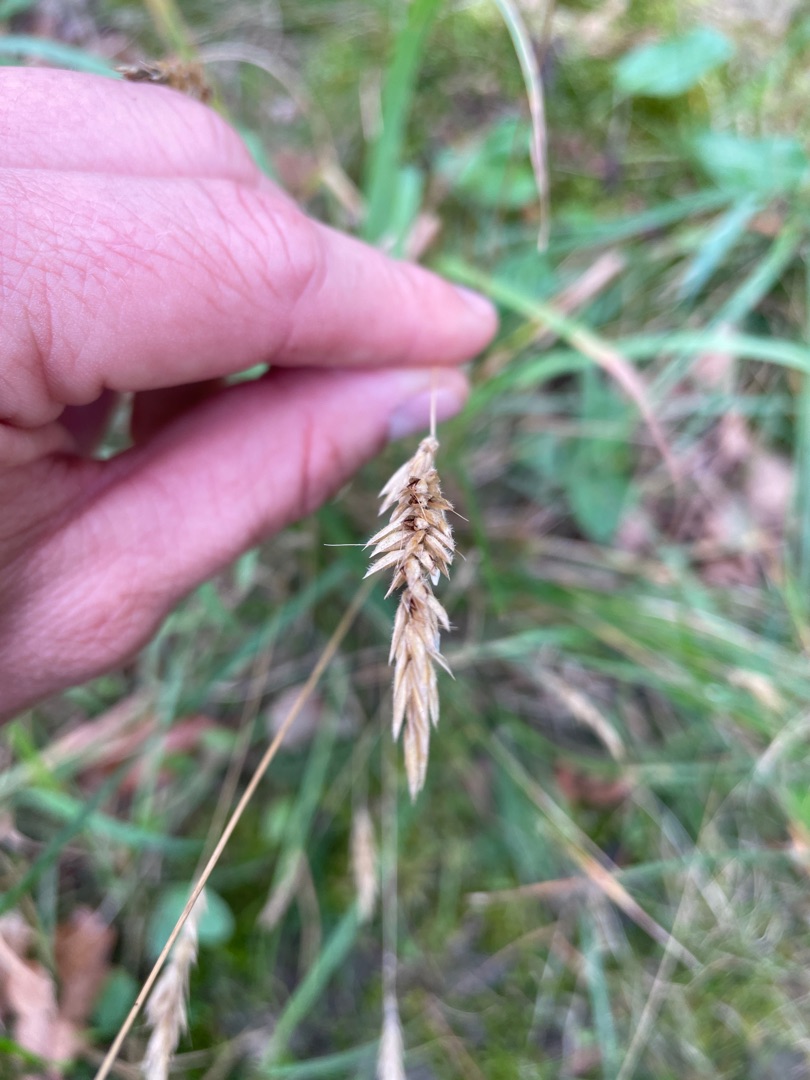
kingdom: Plantae
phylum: Tracheophyta
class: Liliopsida
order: Poales
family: Poaceae
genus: Anthoxanthum
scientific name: Anthoxanthum odoratum
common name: Vellugtende gulaks
